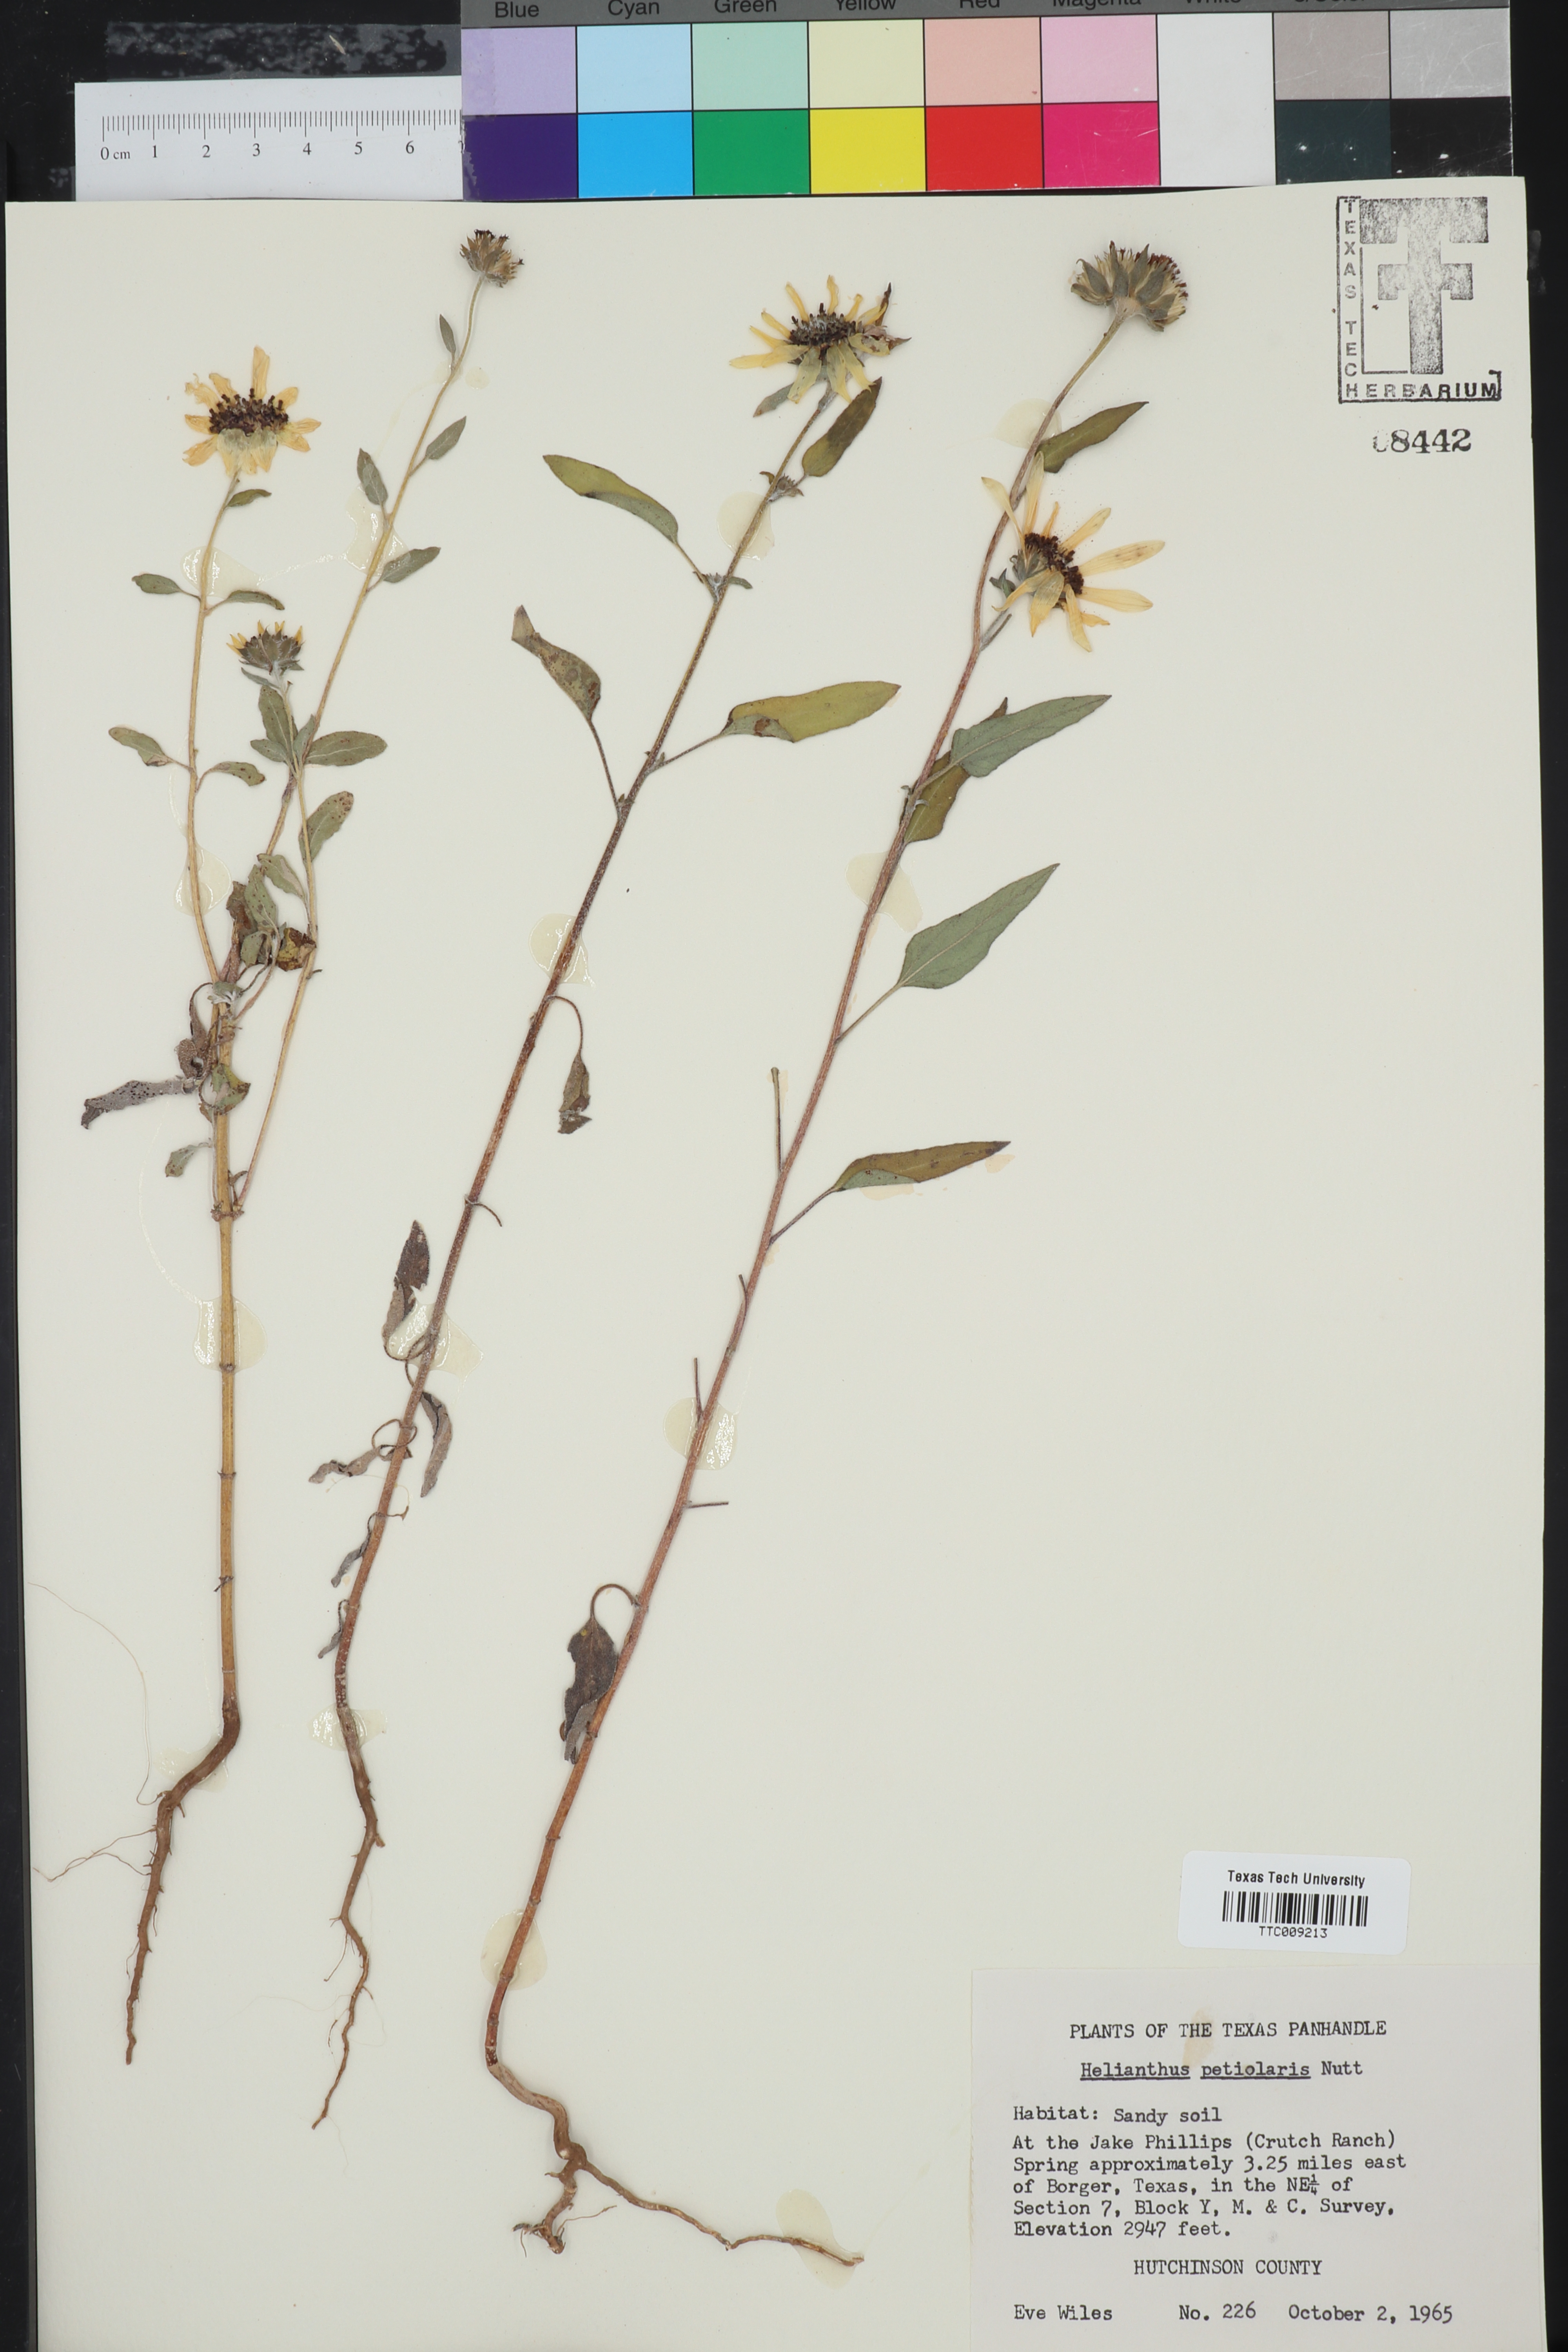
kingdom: Plantae
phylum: Tracheophyta
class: Magnoliopsida
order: Asterales
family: Asteraceae
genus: Helianthus
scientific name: Helianthus petiolaris
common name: Lesser sunflower
